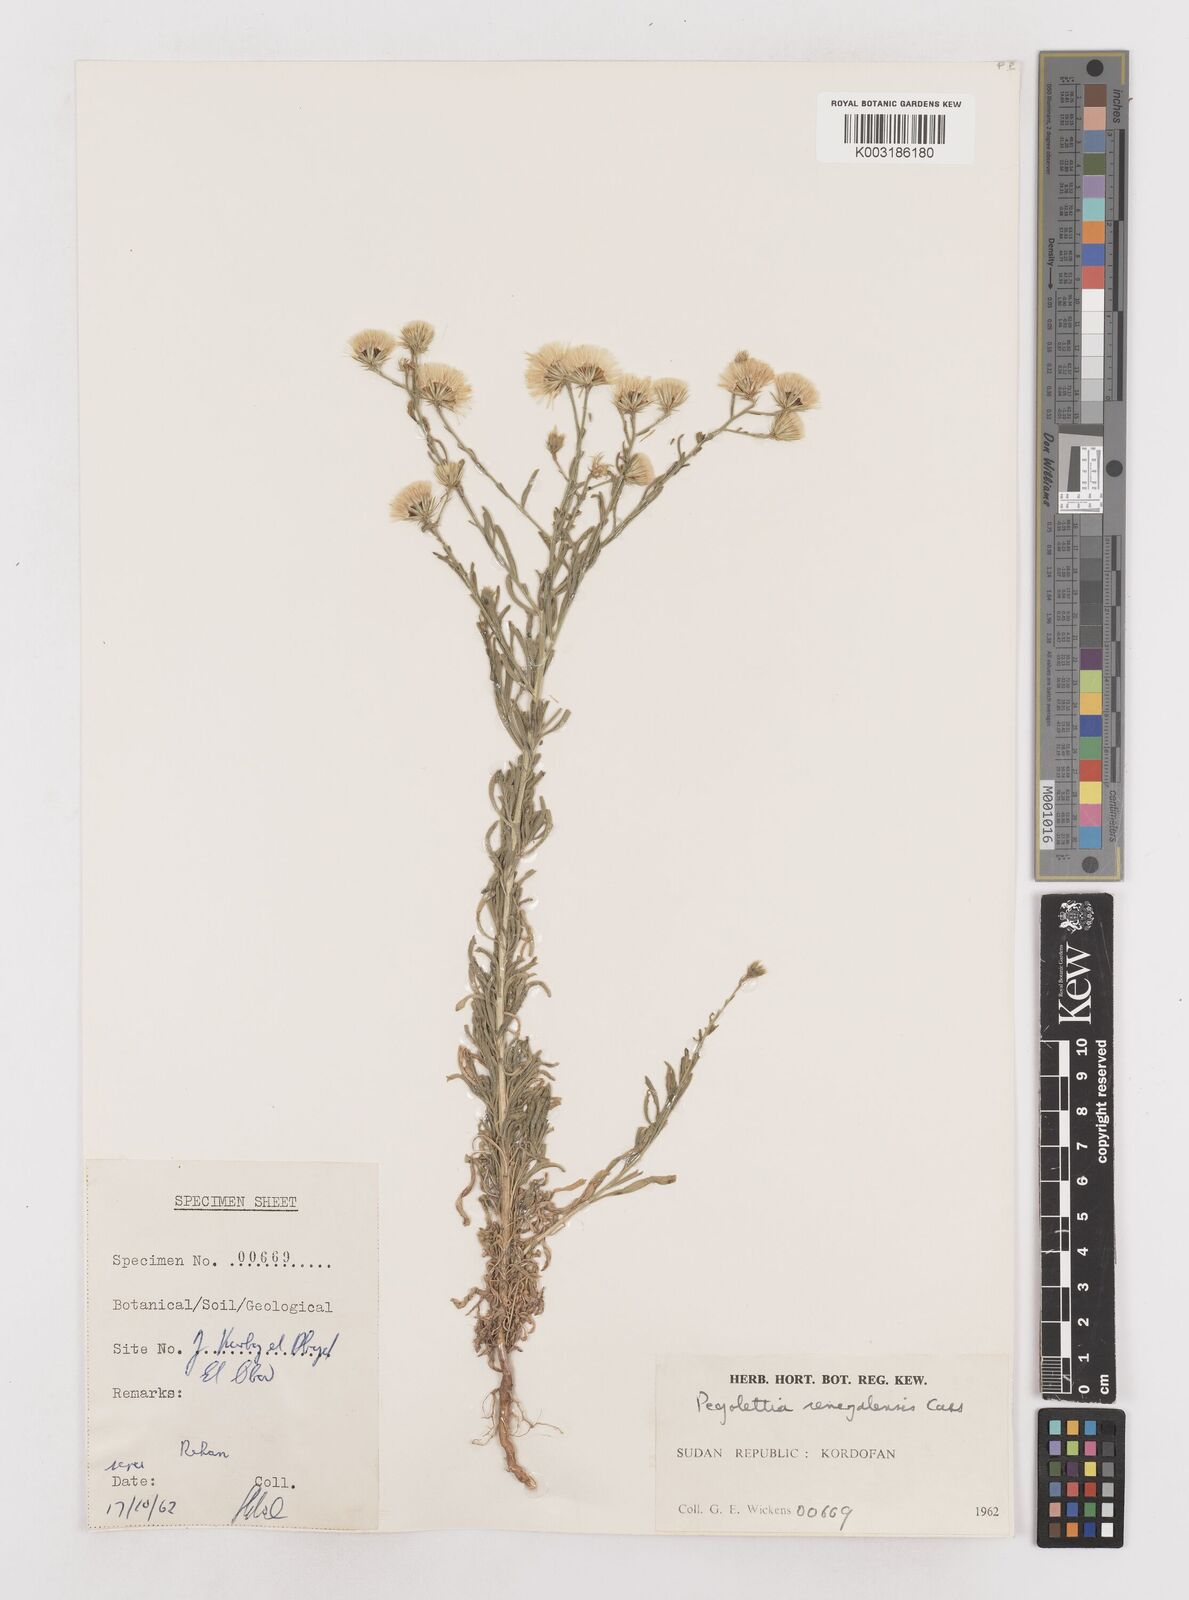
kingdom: Plantae
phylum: Tracheophyta
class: Magnoliopsida
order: Asterales
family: Asteraceae
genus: Pegolettia
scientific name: Pegolettia senegalensis
